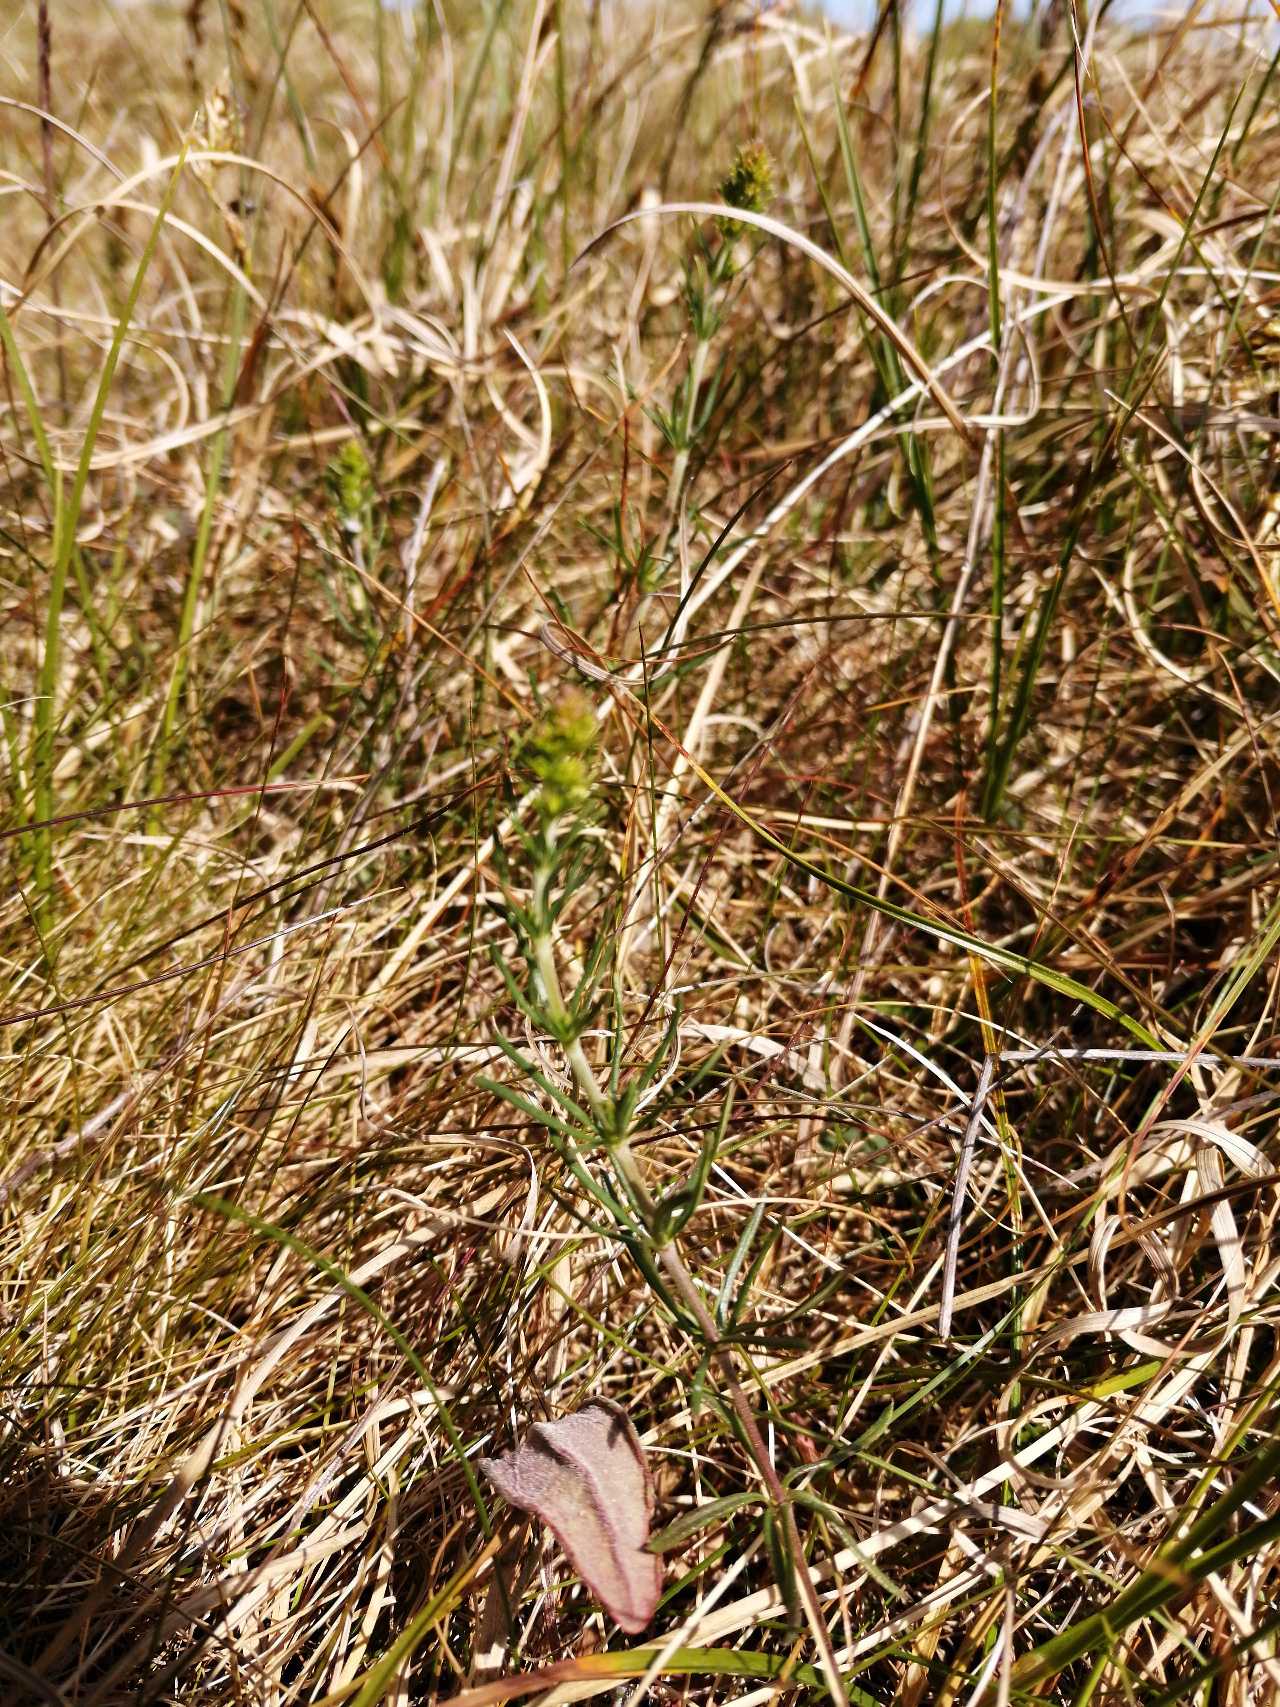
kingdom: Plantae
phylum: Tracheophyta
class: Magnoliopsida
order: Gentianales
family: Rubiaceae
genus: Galium
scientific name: Galium verum
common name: Gul snerre
